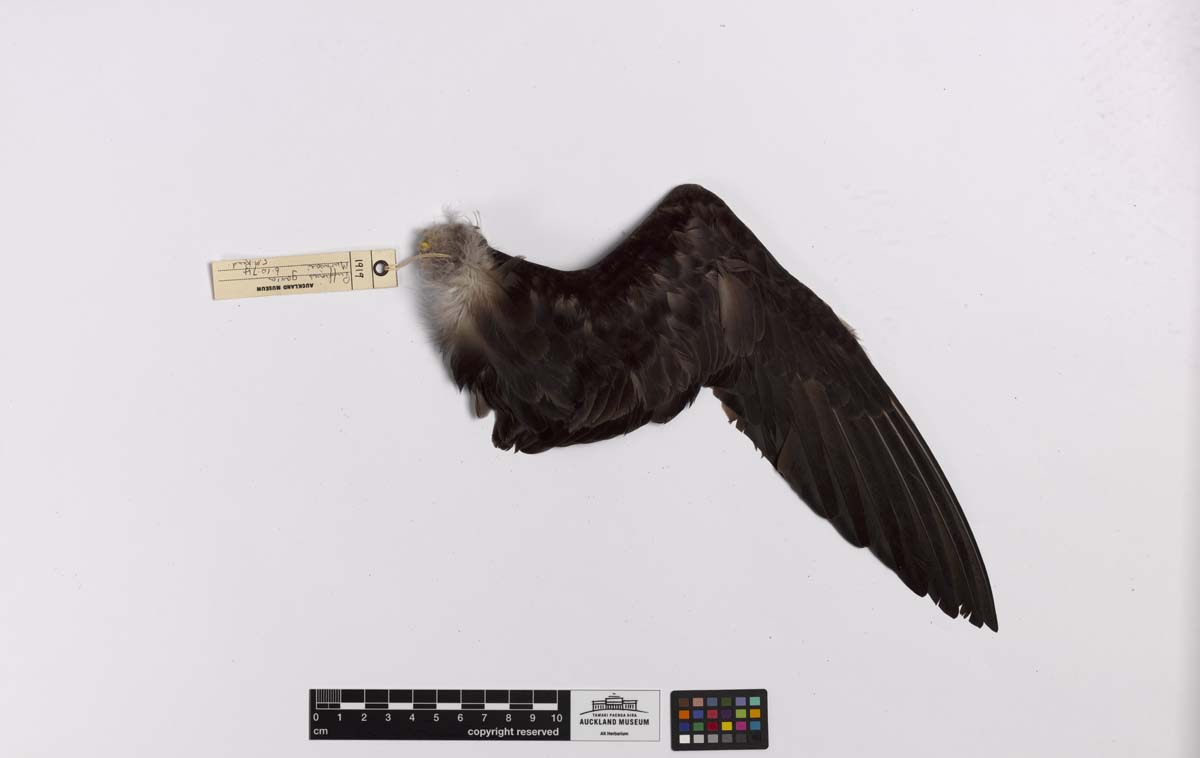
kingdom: Animalia
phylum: Chordata
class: Aves
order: Procellariiformes
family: Procellariidae
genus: Ardenna
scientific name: Ardenna
